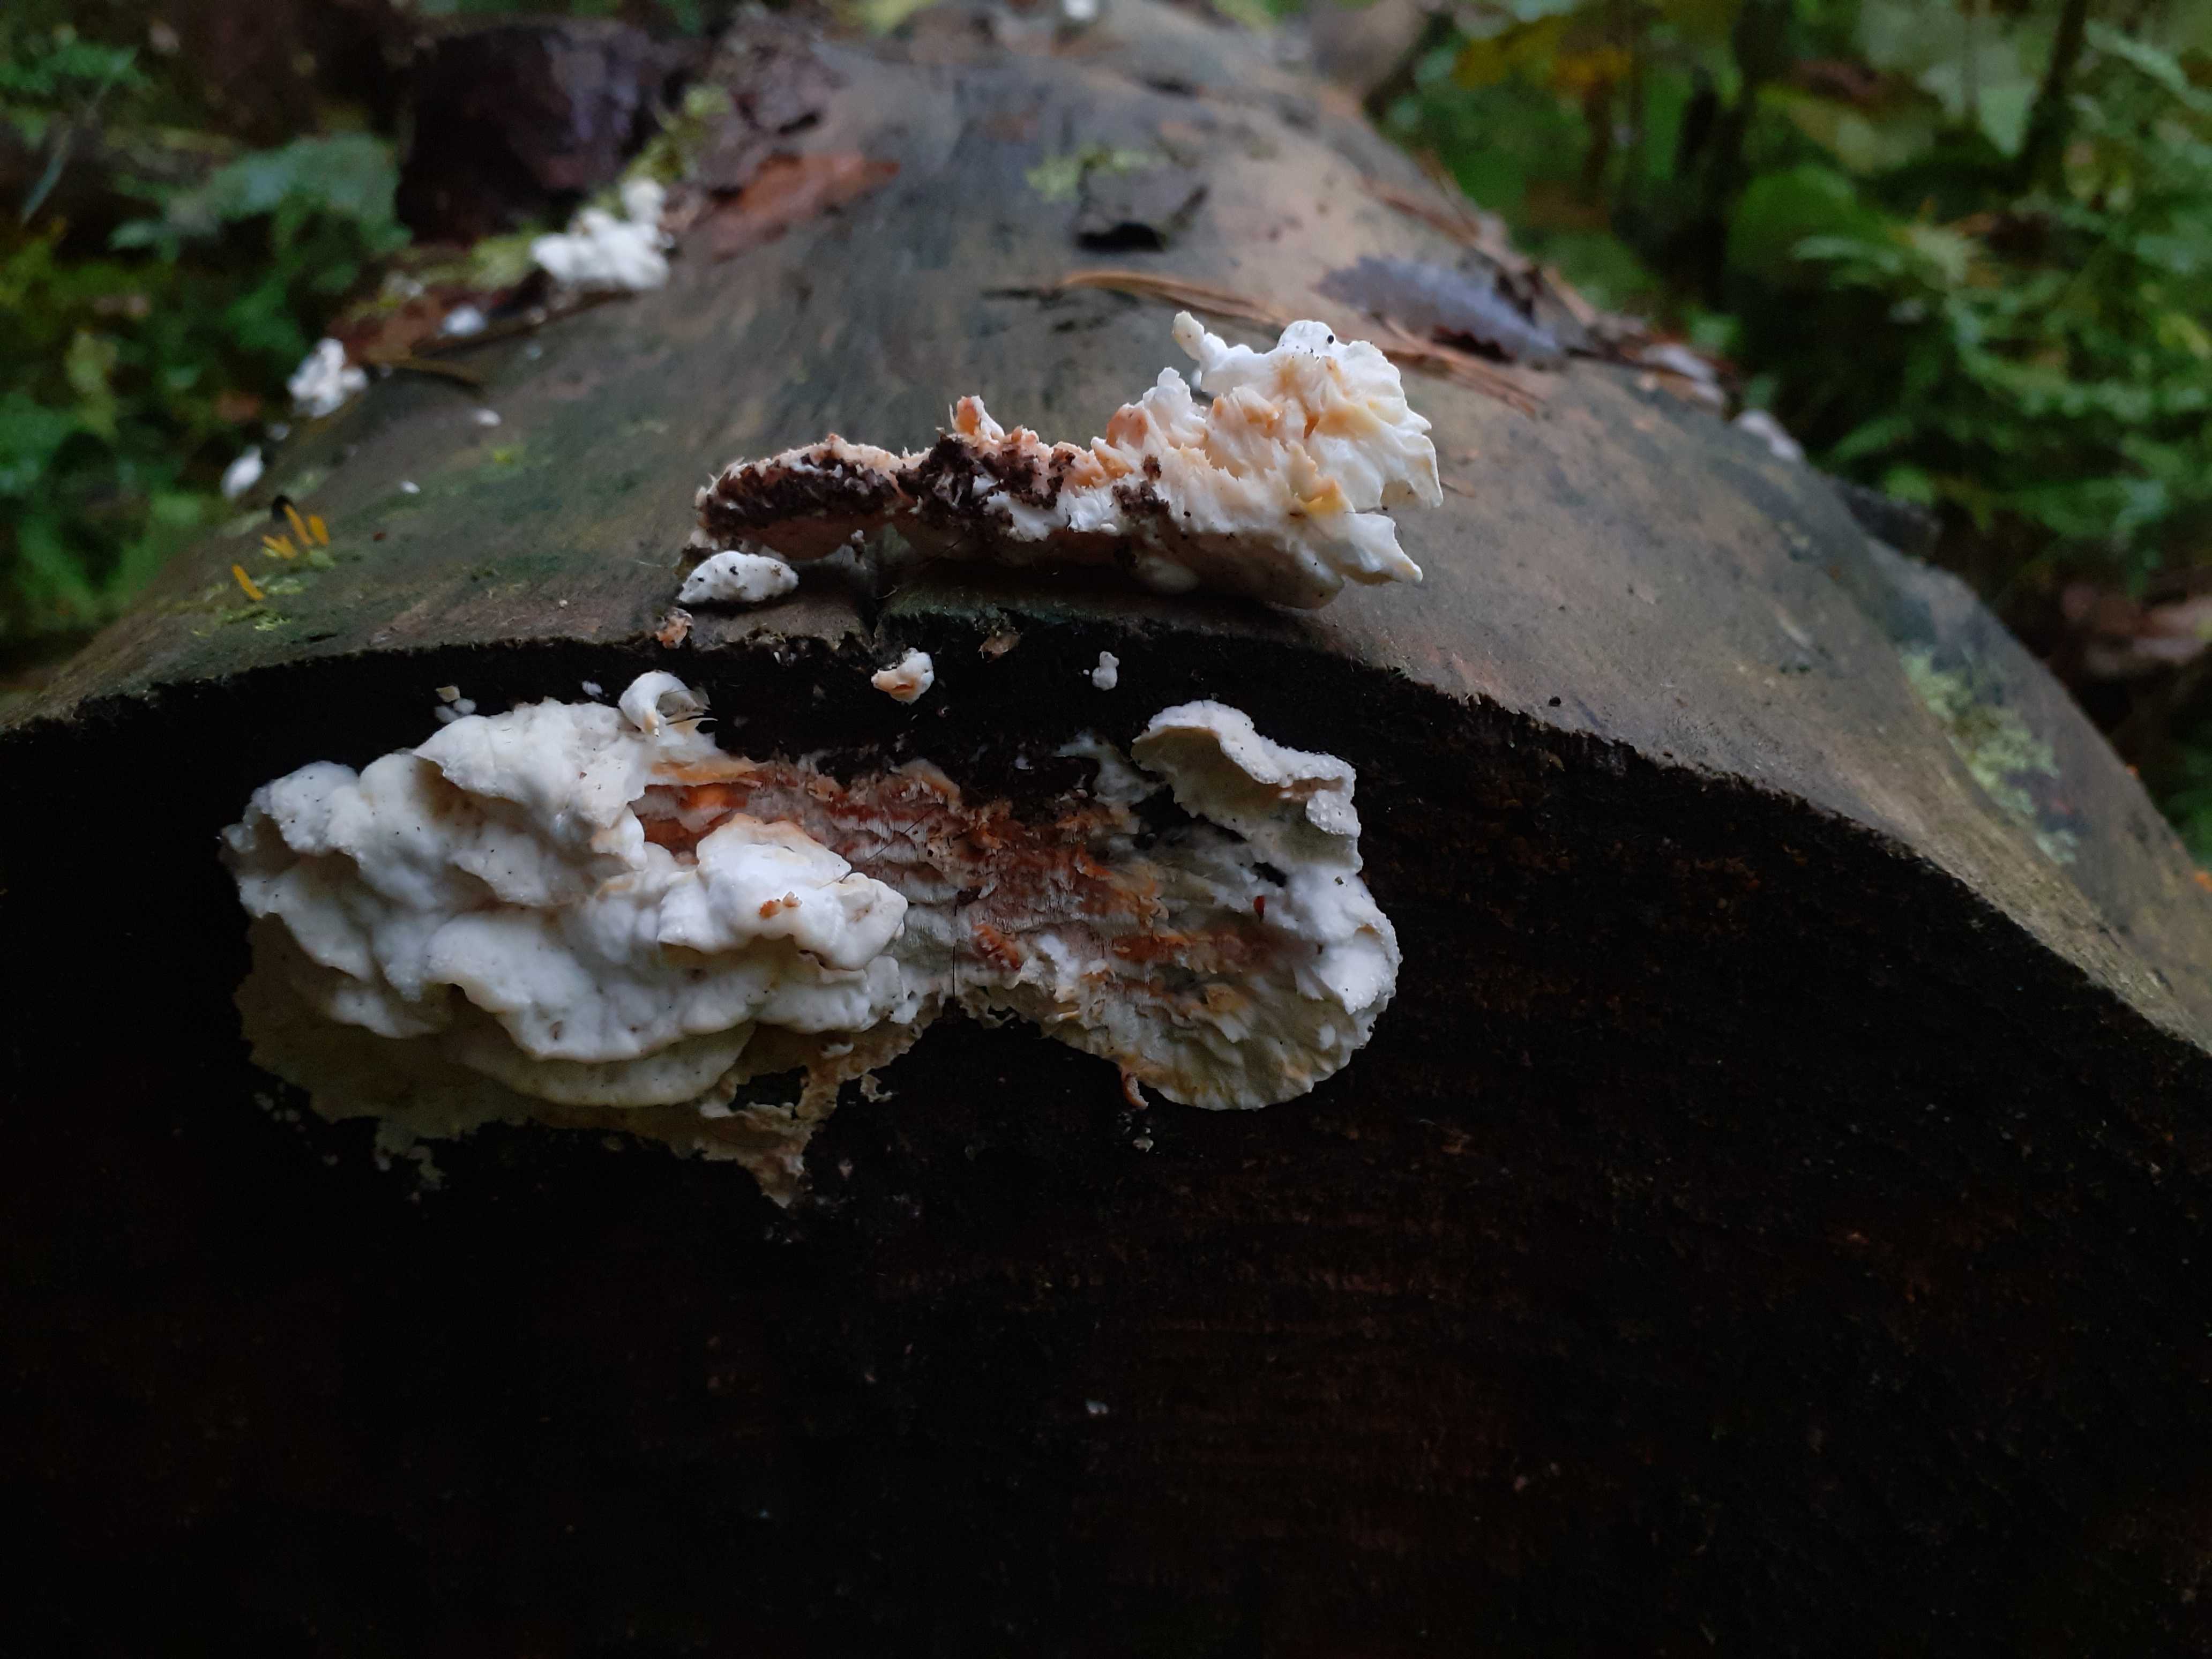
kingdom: Fungi
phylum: Basidiomycota
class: Agaricomycetes
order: Polyporales
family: Incrustoporiaceae
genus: Skeletocutis
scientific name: Skeletocutis amorpha
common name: orange krystalporesvamp
